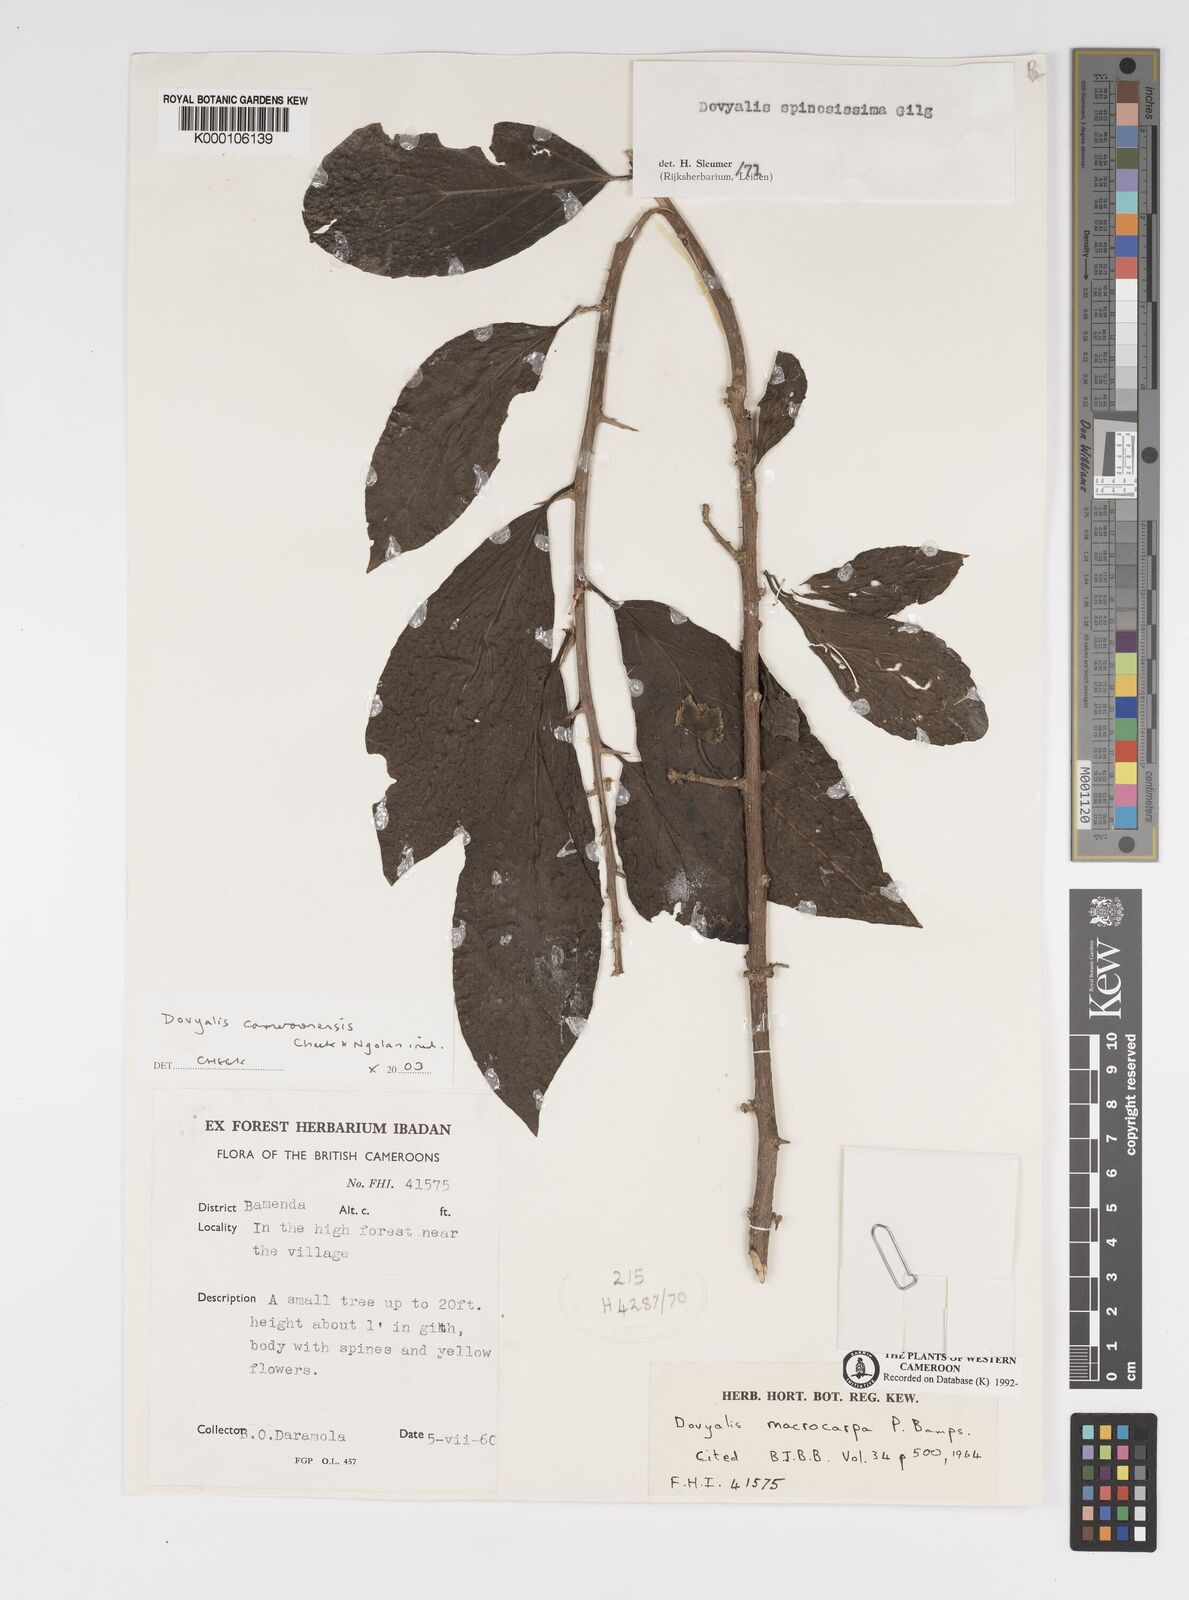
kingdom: Plantae
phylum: Tracheophyta
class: Magnoliopsida
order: Malpighiales
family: Salicaceae
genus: Dovyalis
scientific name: Dovyalis spinosissima
